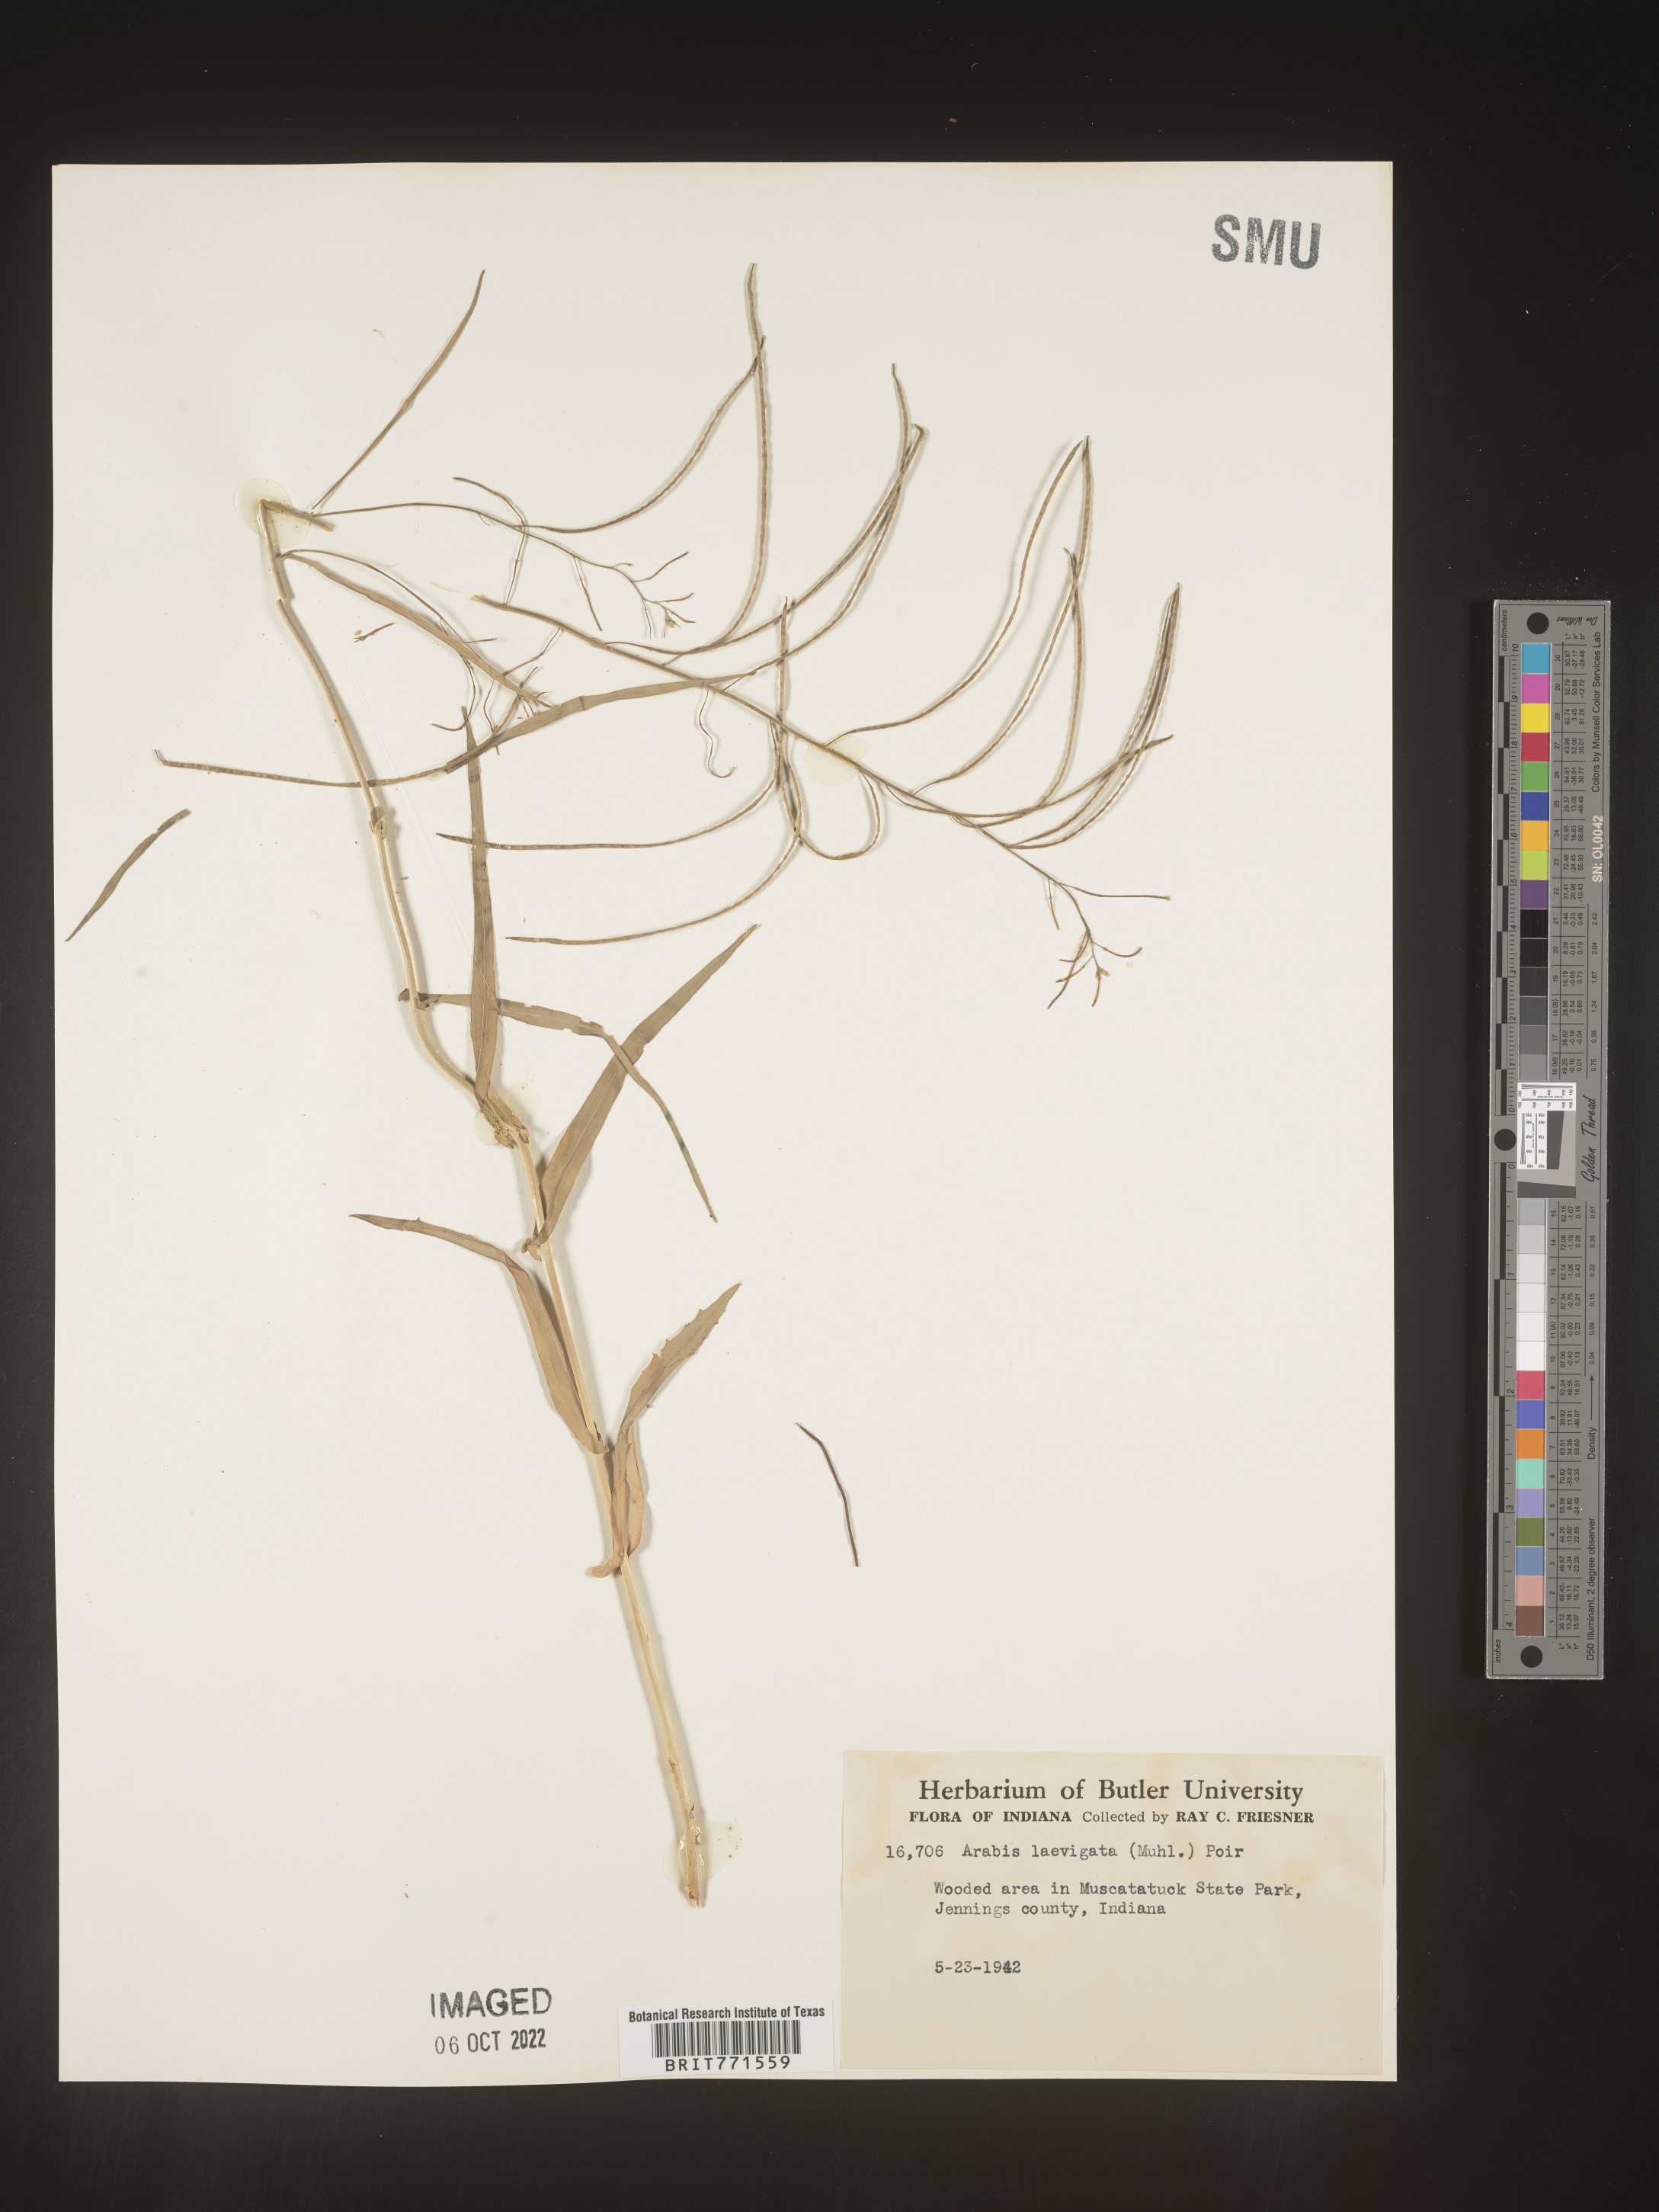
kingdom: Plantae
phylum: Tracheophyta
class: Magnoliopsida
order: Brassicales
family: Brassicaceae
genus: Arabis
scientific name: Arabis laevigata
